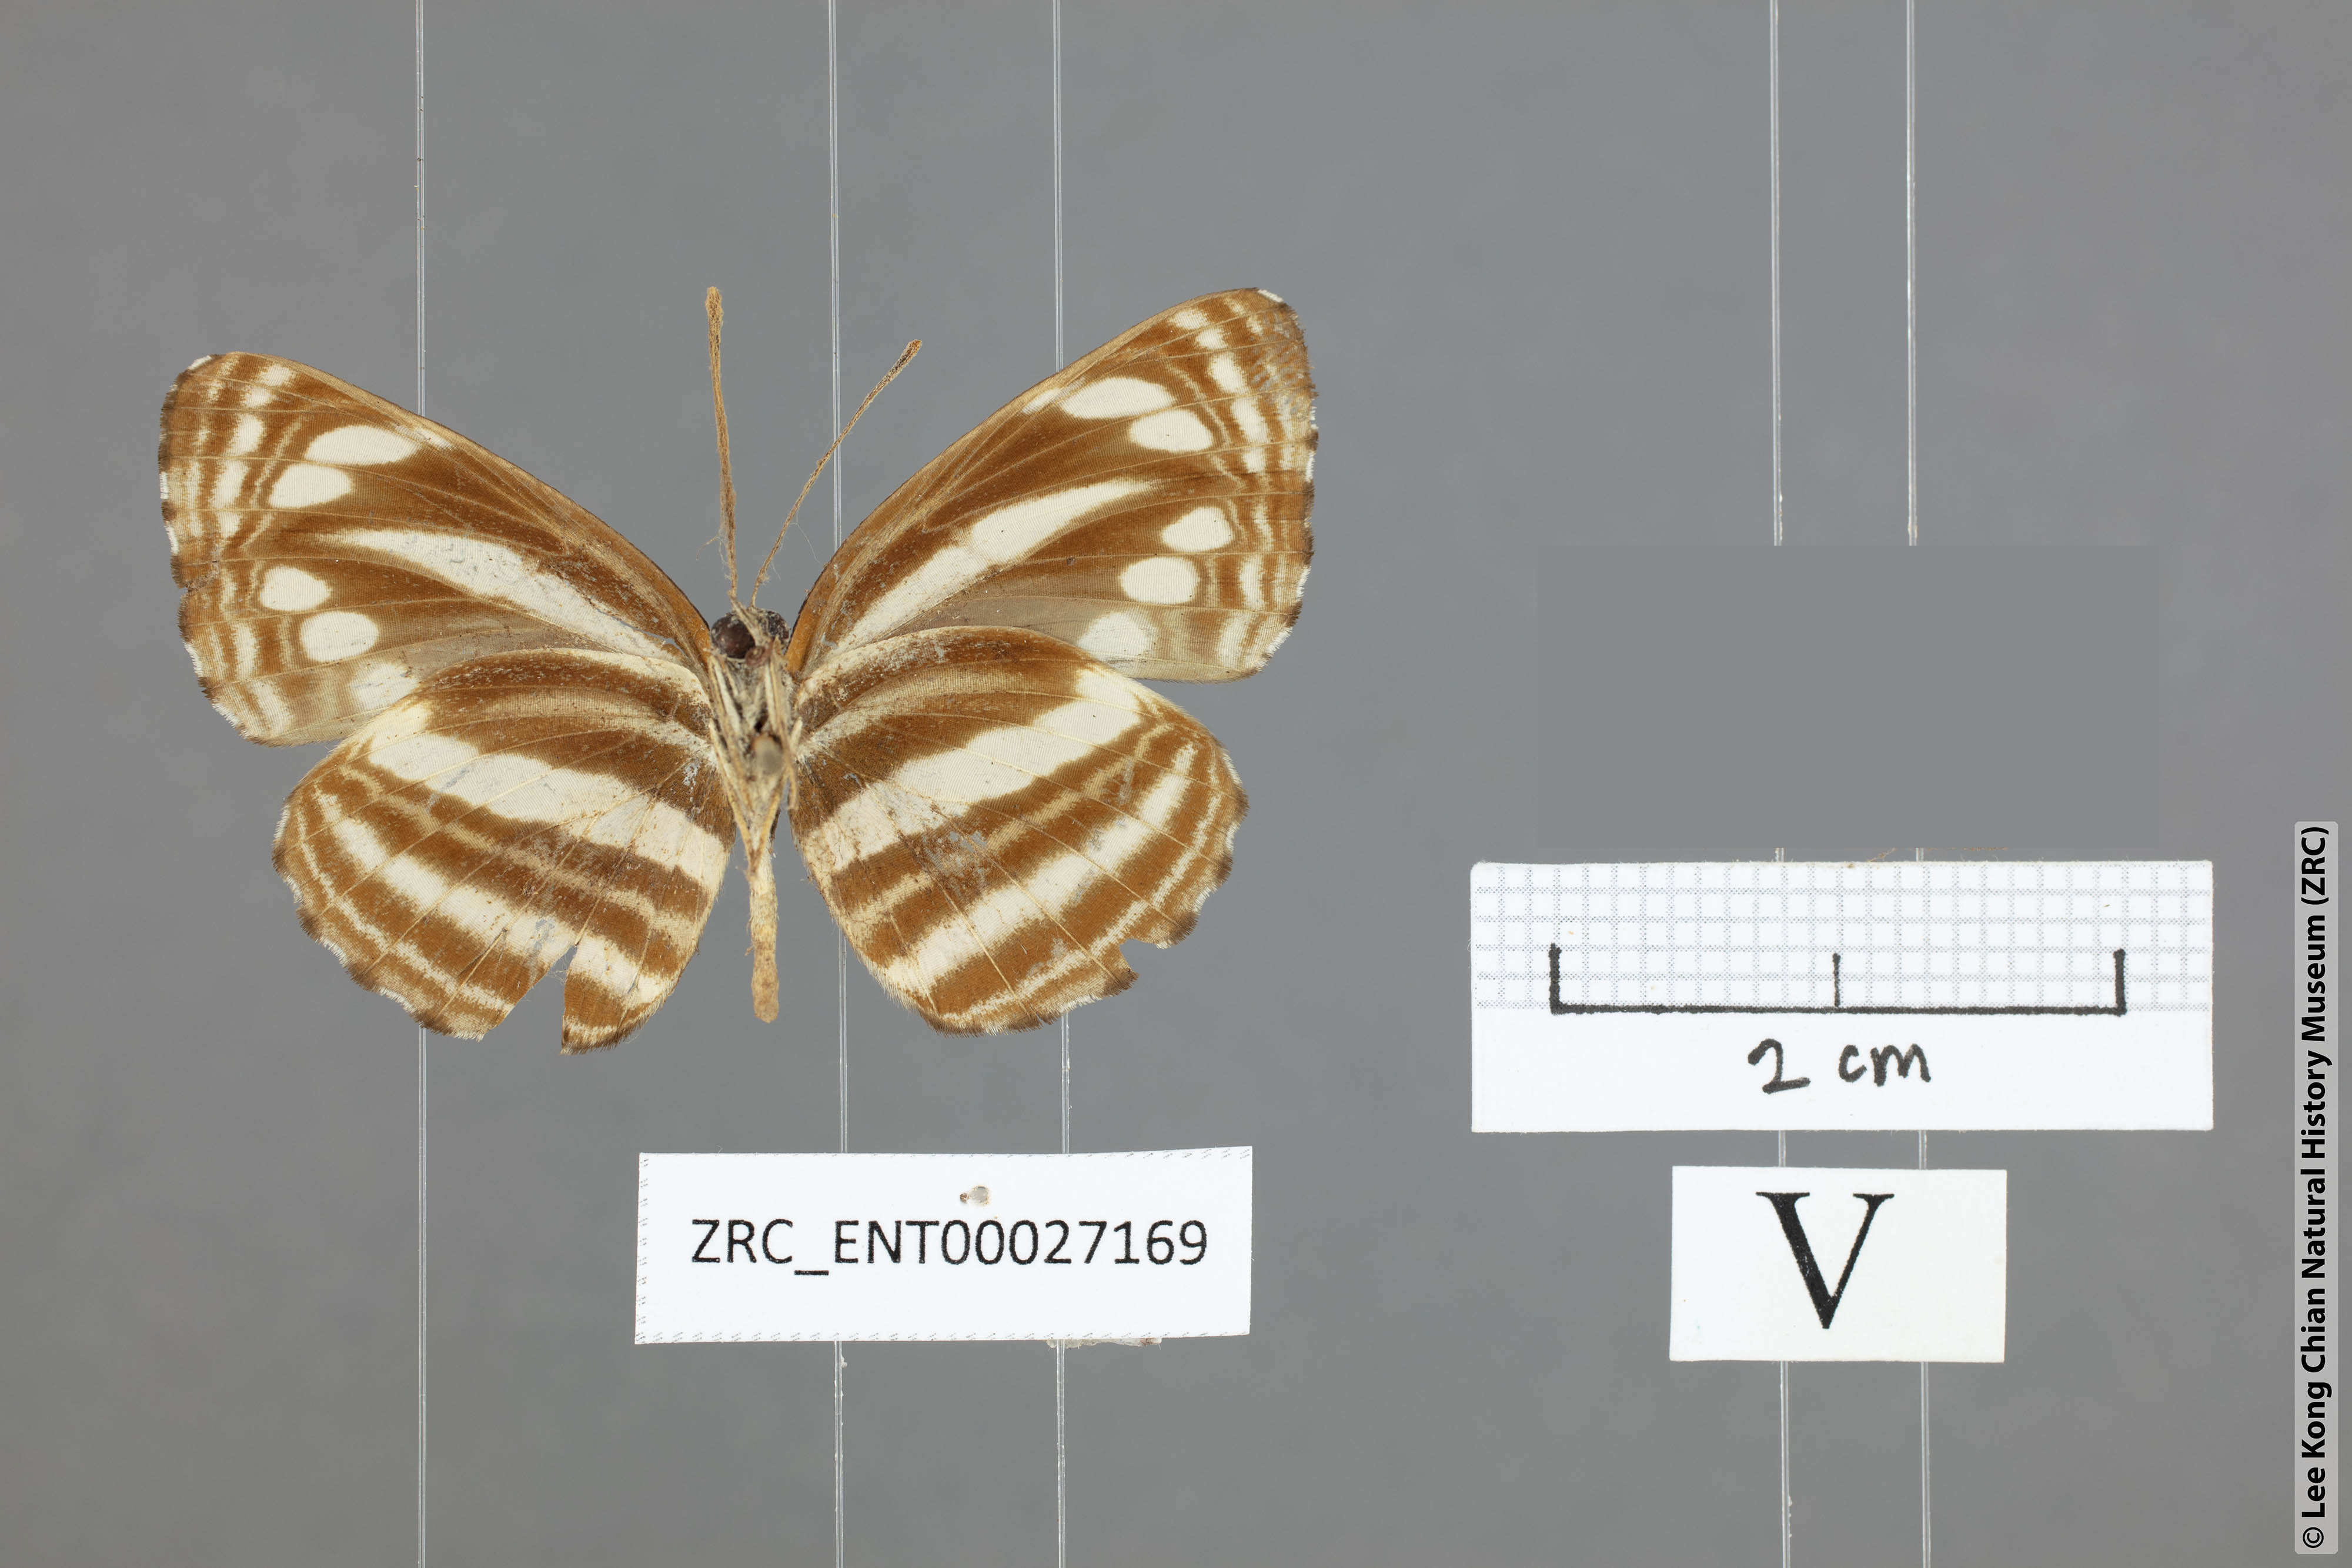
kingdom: Animalia
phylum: Arthropoda
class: Insecta
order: Lepidoptera
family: Nymphalidae
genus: Neptis
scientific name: Neptis
